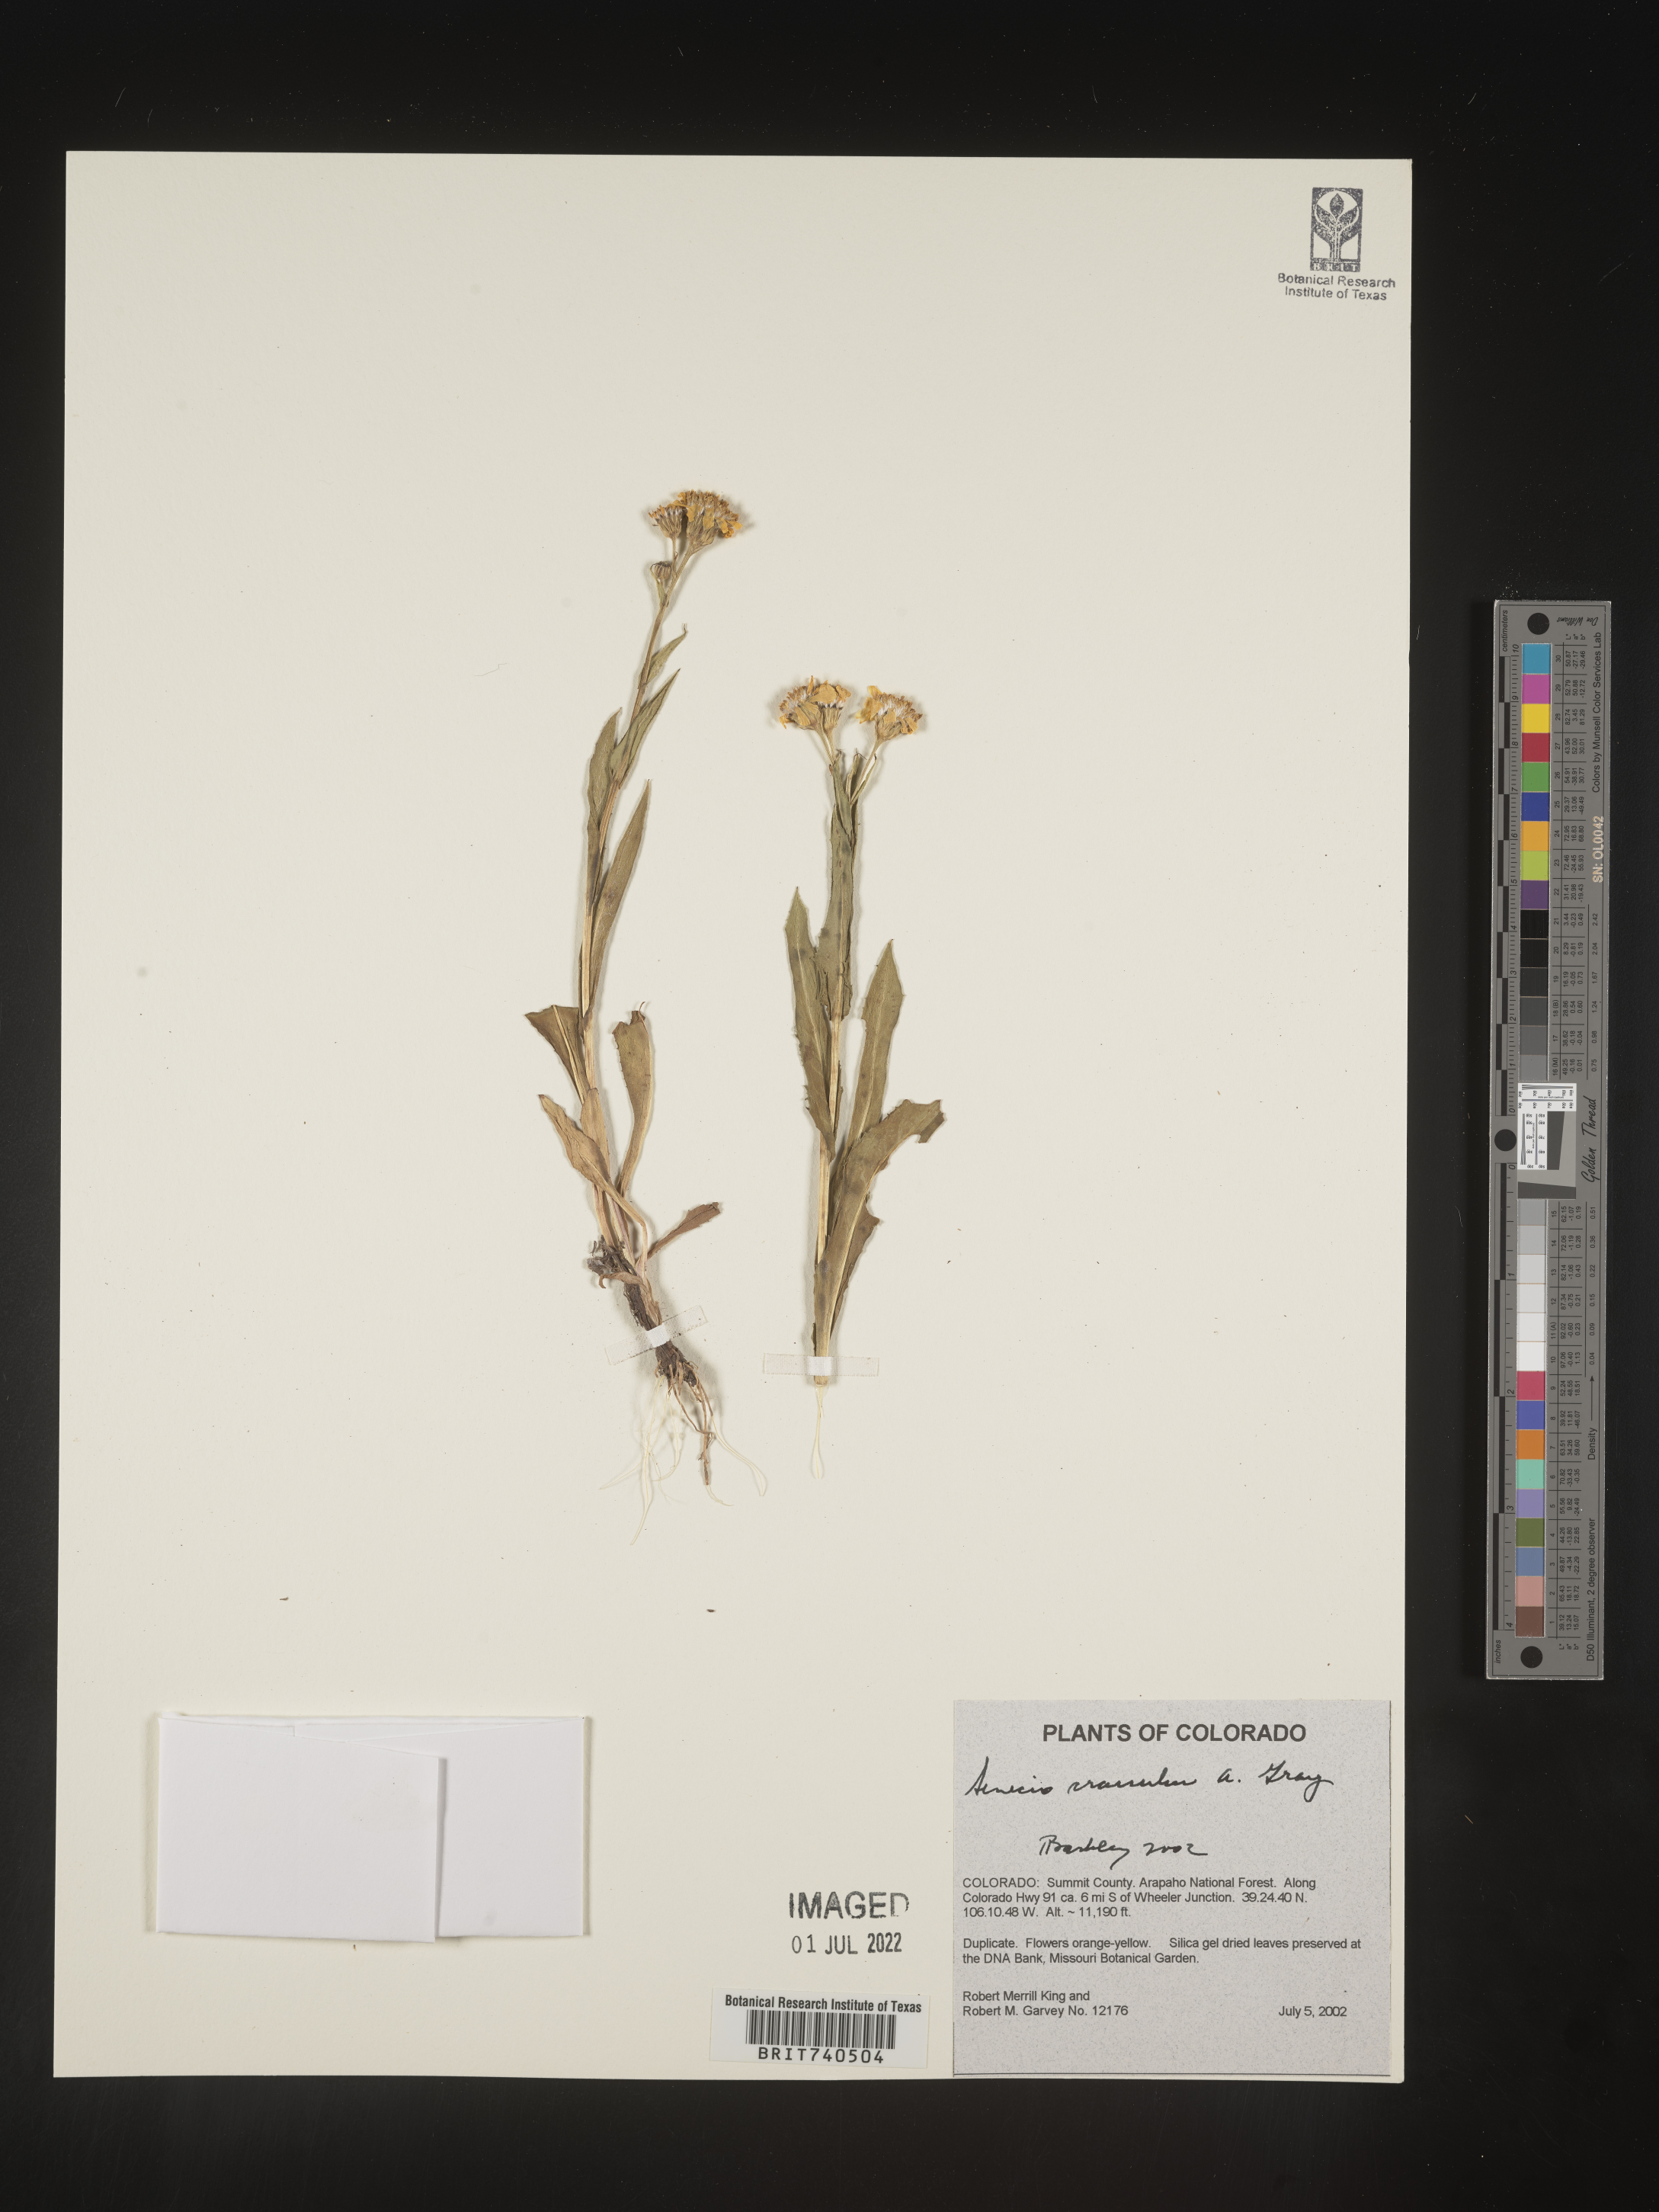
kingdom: Plantae
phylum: Tracheophyta
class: Magnoliopsida
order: Asterales
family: Asteraceae
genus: Senecio
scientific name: Senecio crassulus
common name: Mountain-meadow butterweed
